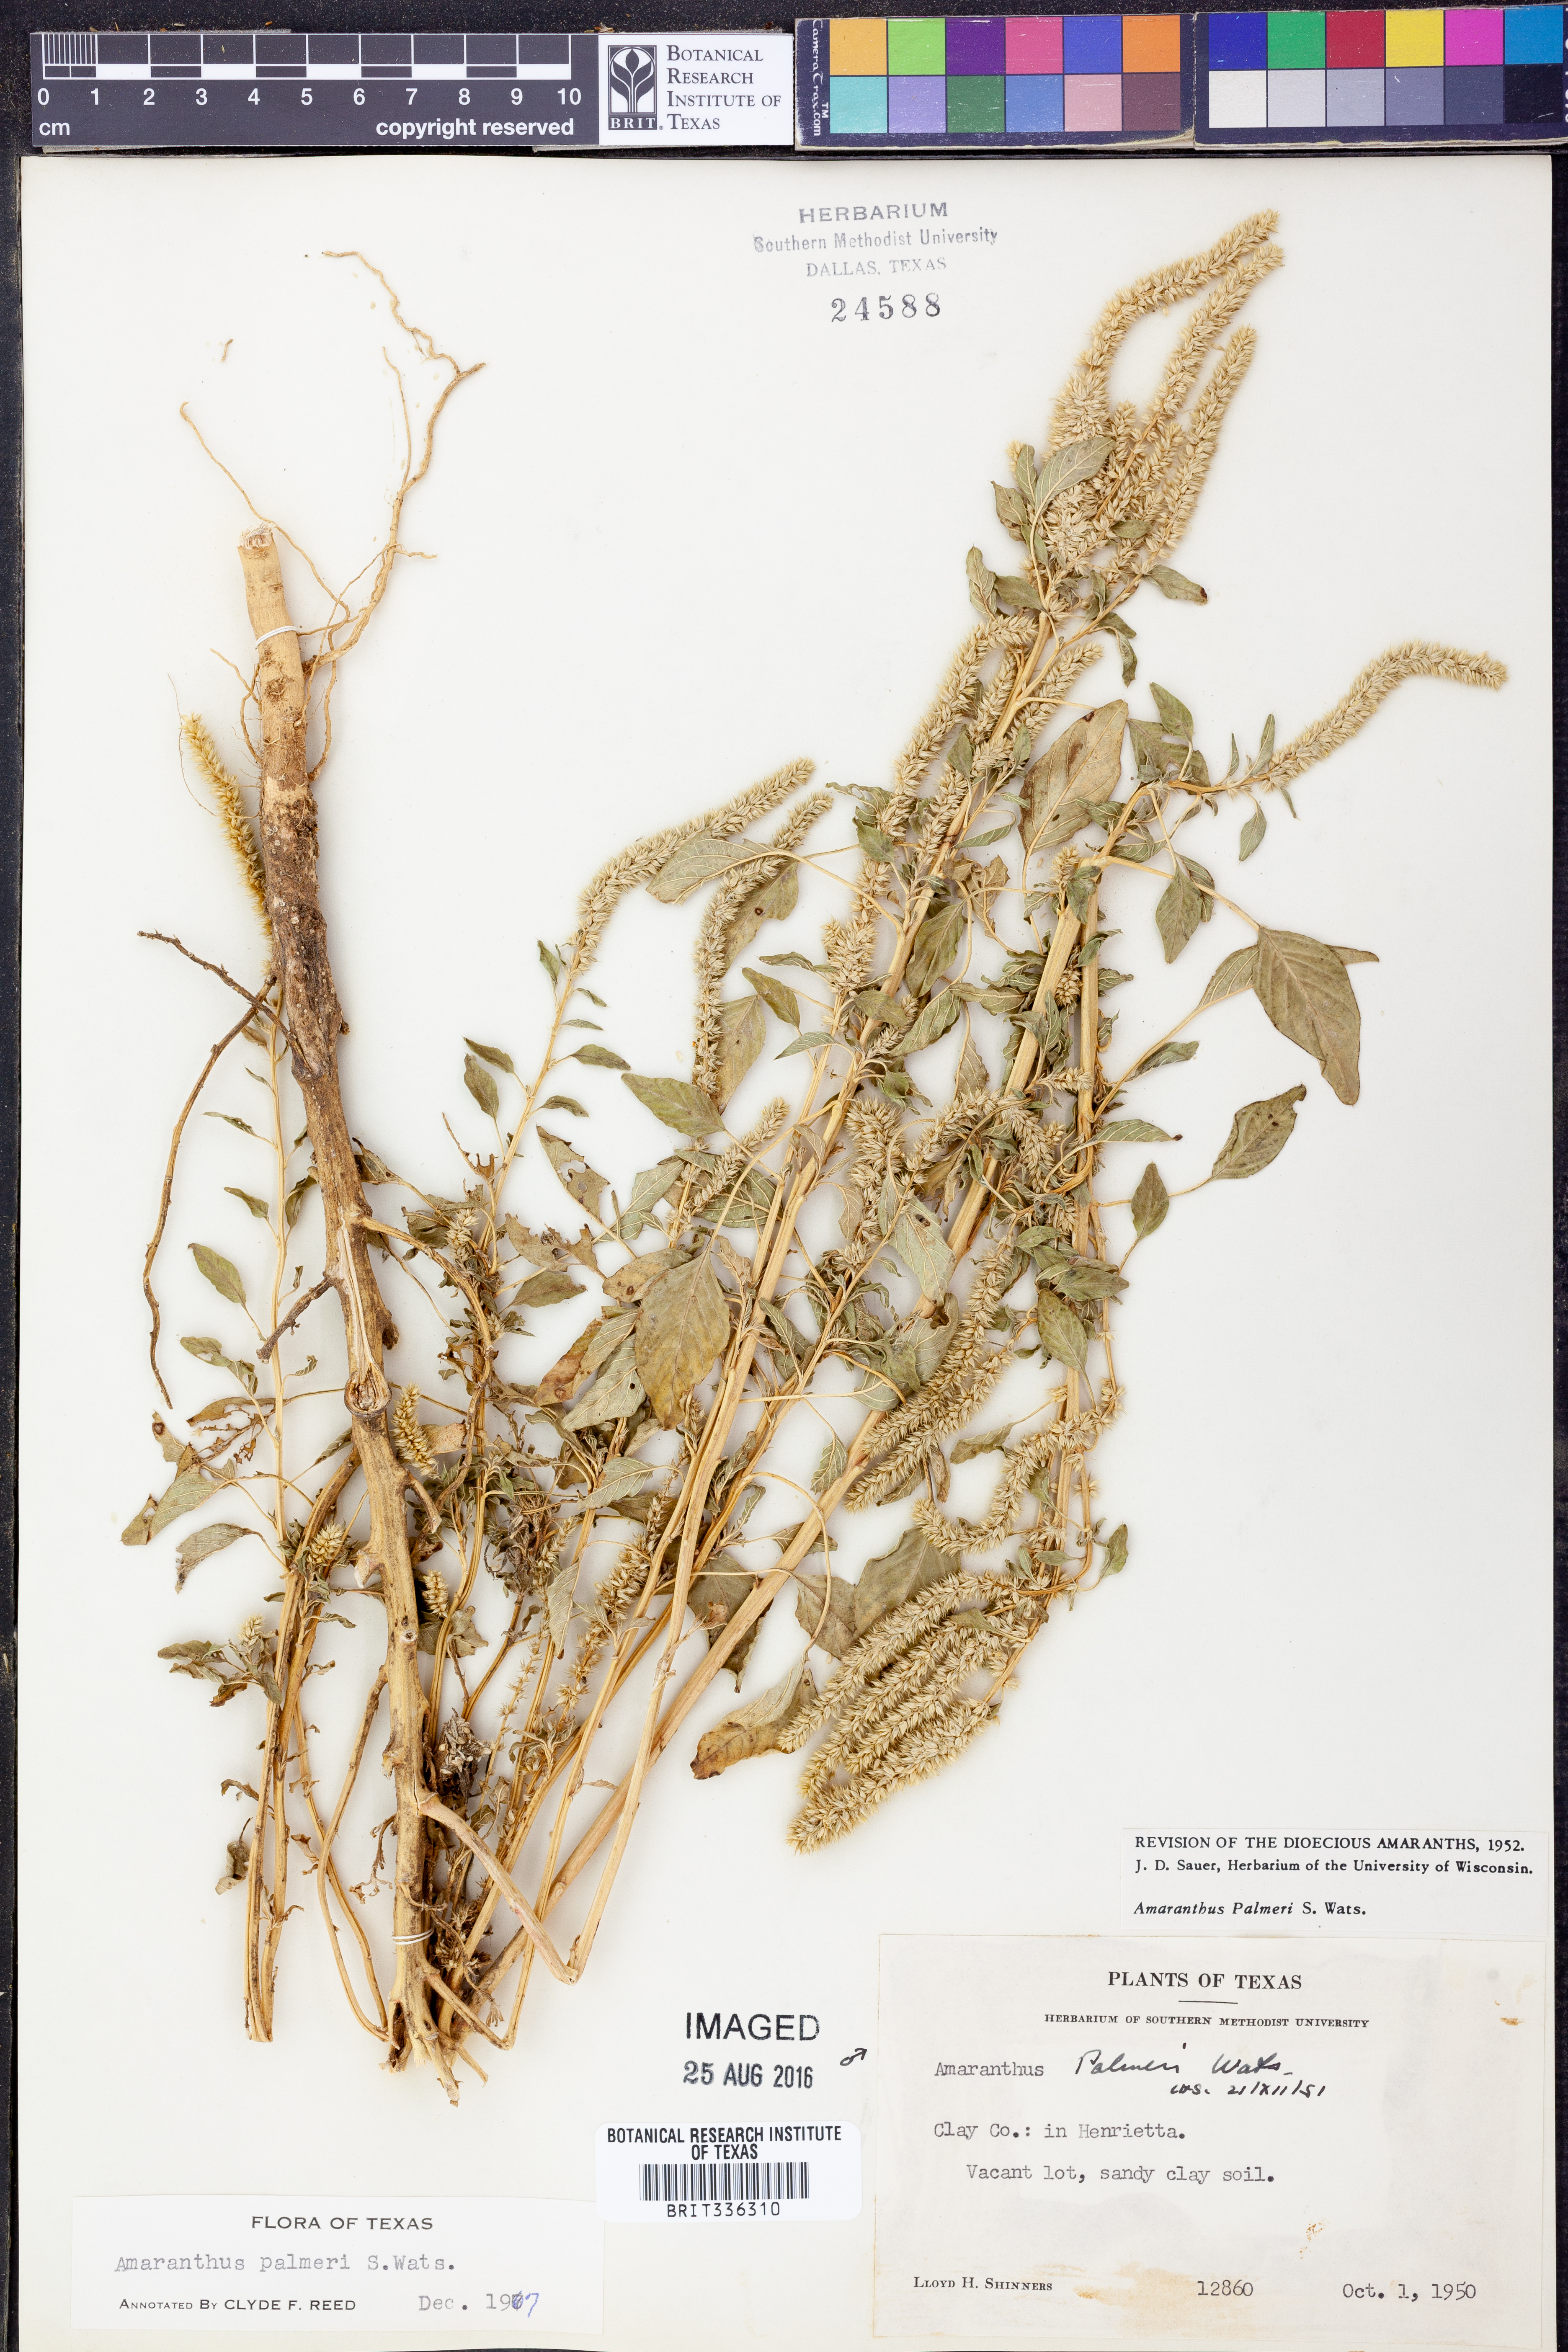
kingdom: Plantae
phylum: Tracheophyta
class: Magnoliopsida
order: Caryophyllales
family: Amaranthaceae
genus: Amaranthus
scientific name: Amaranthus palmeri
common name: Dioecious amaranth
